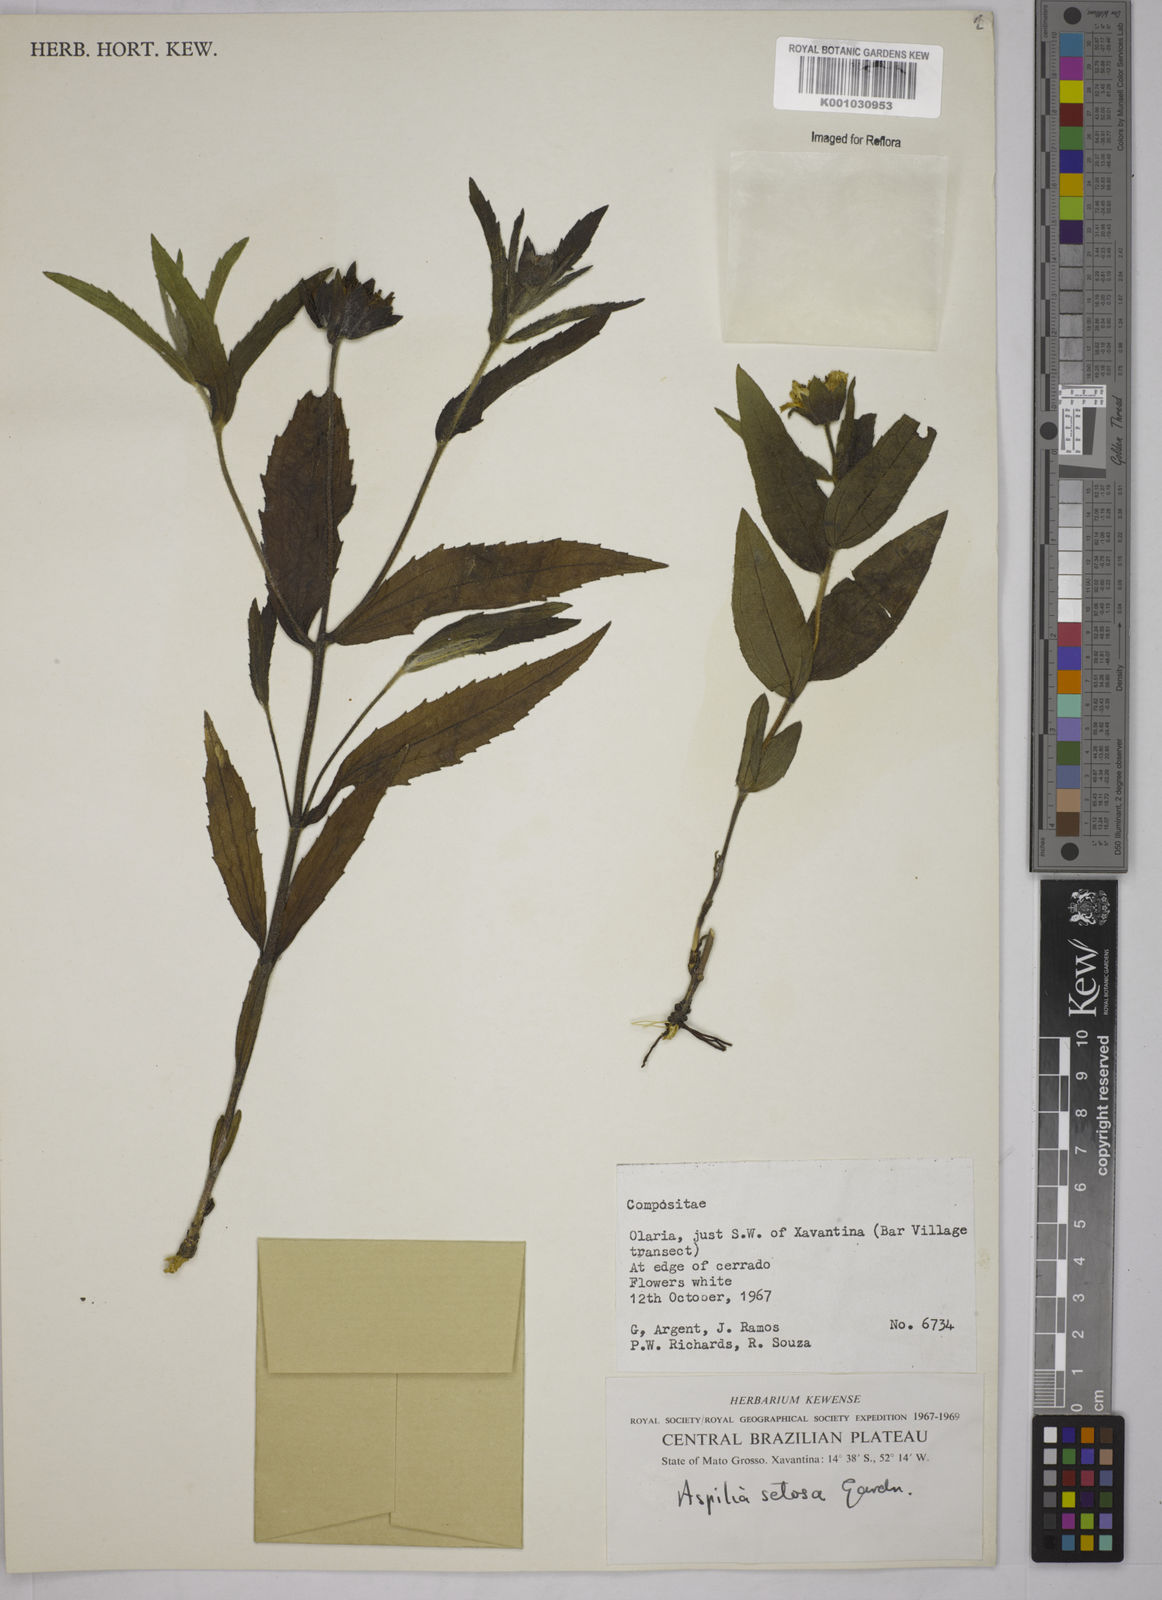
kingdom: Plantae
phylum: Tracheophyta
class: Magnoliopsida
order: Asterales
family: Asteraceae
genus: Aspilia
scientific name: Aspilia
